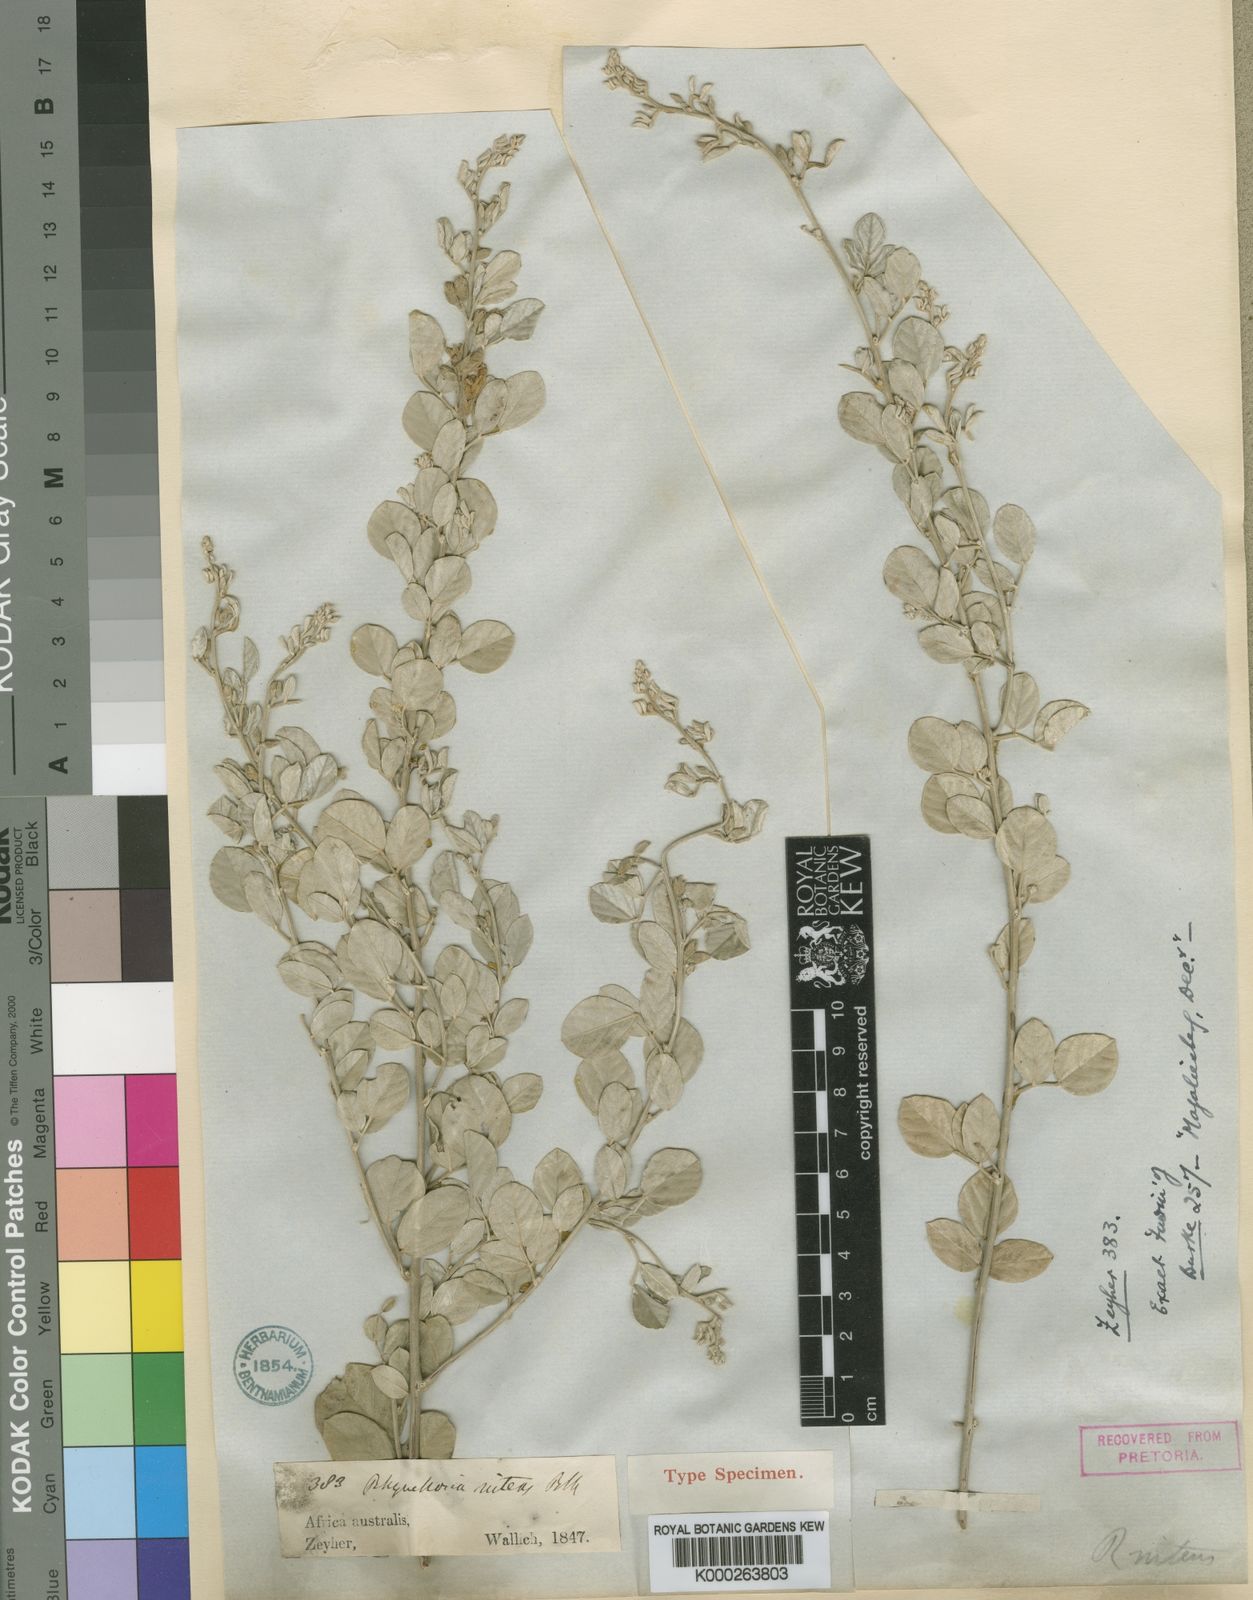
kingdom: Plantae
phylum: Tracheophyta
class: Magnoliopsida
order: Fabales
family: Fabaceae
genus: Rhynchosia
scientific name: Rhynchosia
